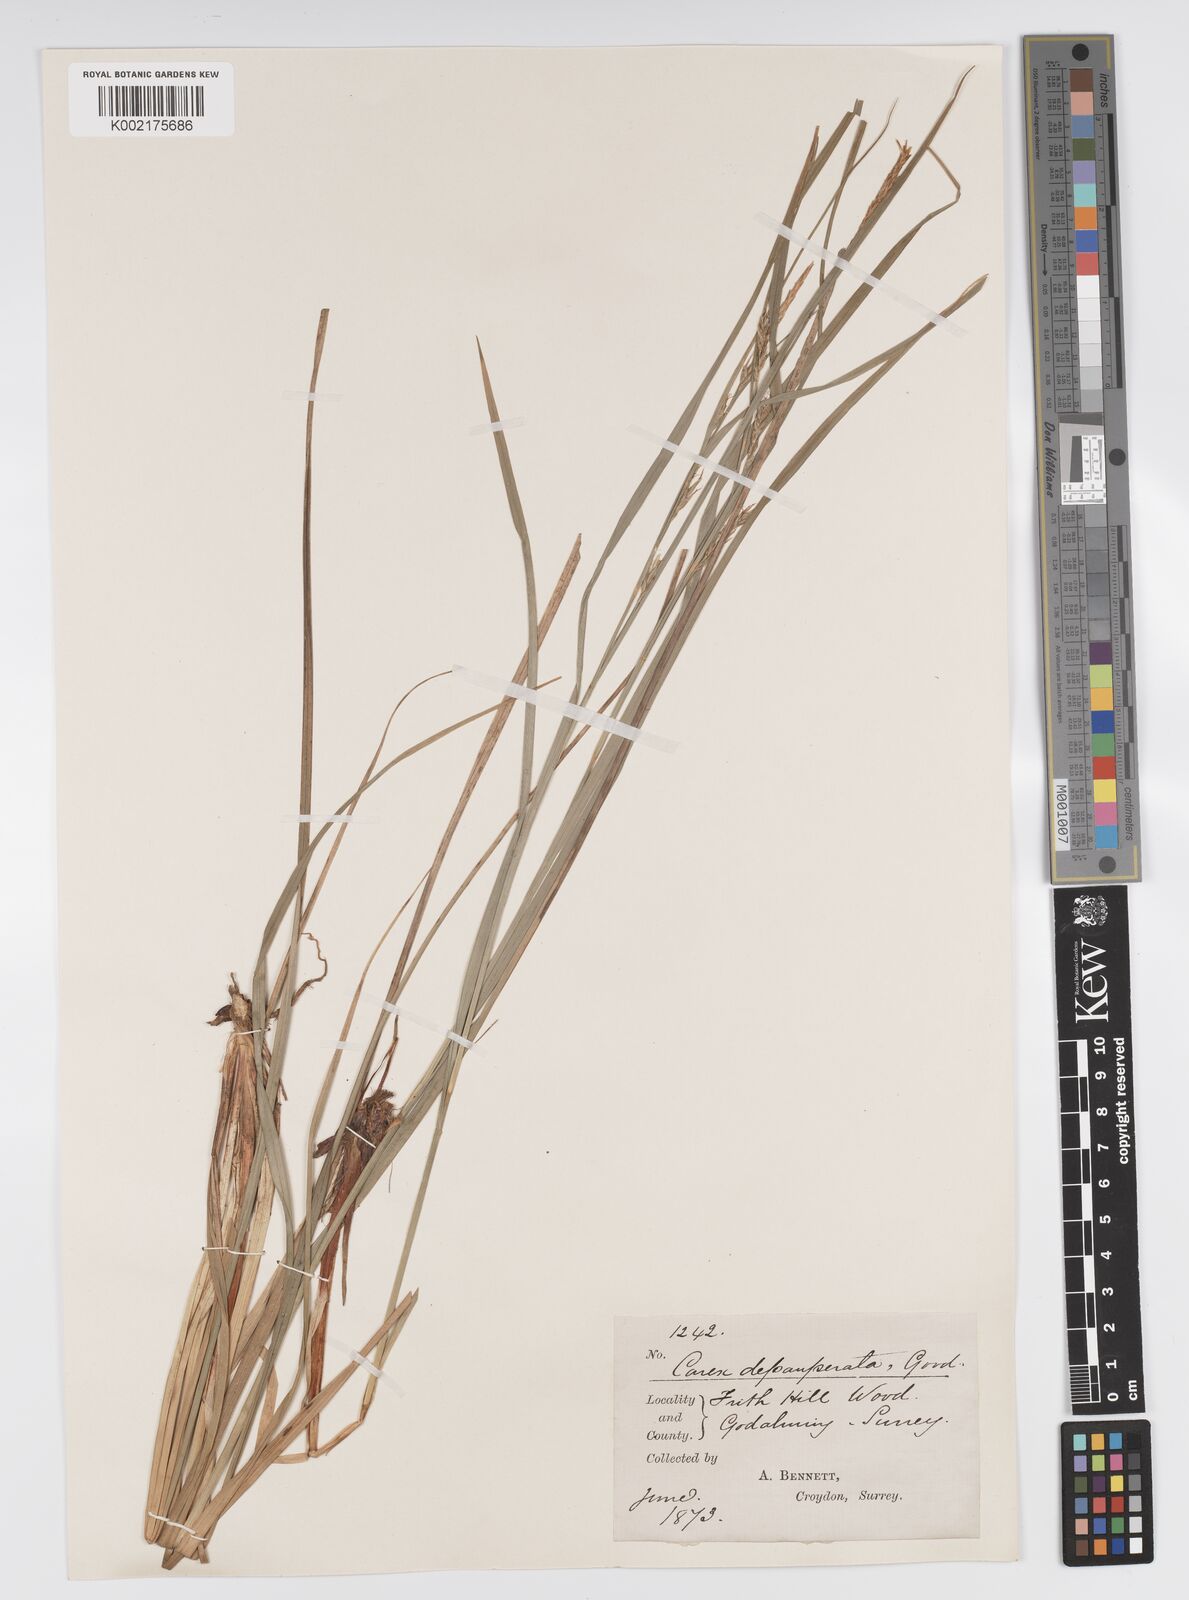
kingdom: Plantae
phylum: Tracheophyta
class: Liliopsida
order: Poales
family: Cyperaceae
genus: Carex
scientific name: Carex vaginata
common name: Sheathed sedge
